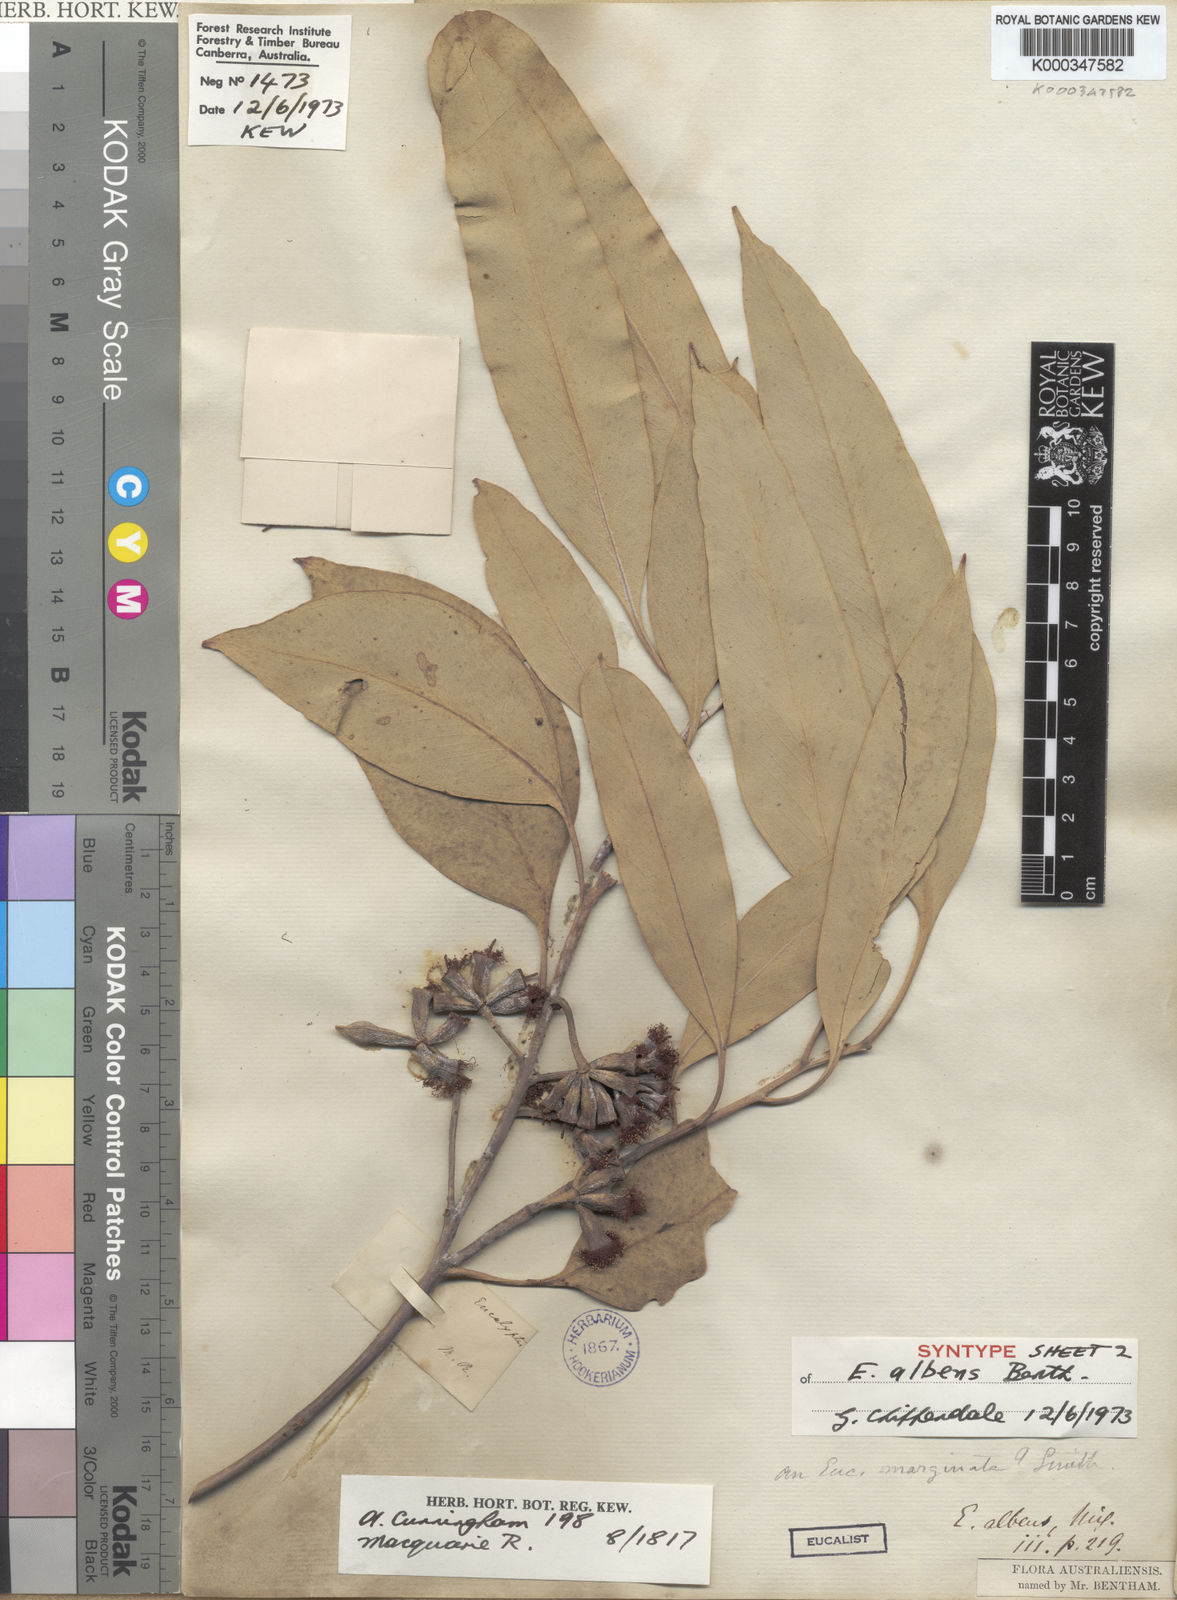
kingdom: Plantae
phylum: Tracheophyta
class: Magnoliopsida
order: Myrtales
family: Myrtaceae
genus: Eucalyptus
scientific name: Eucalyptus albens
